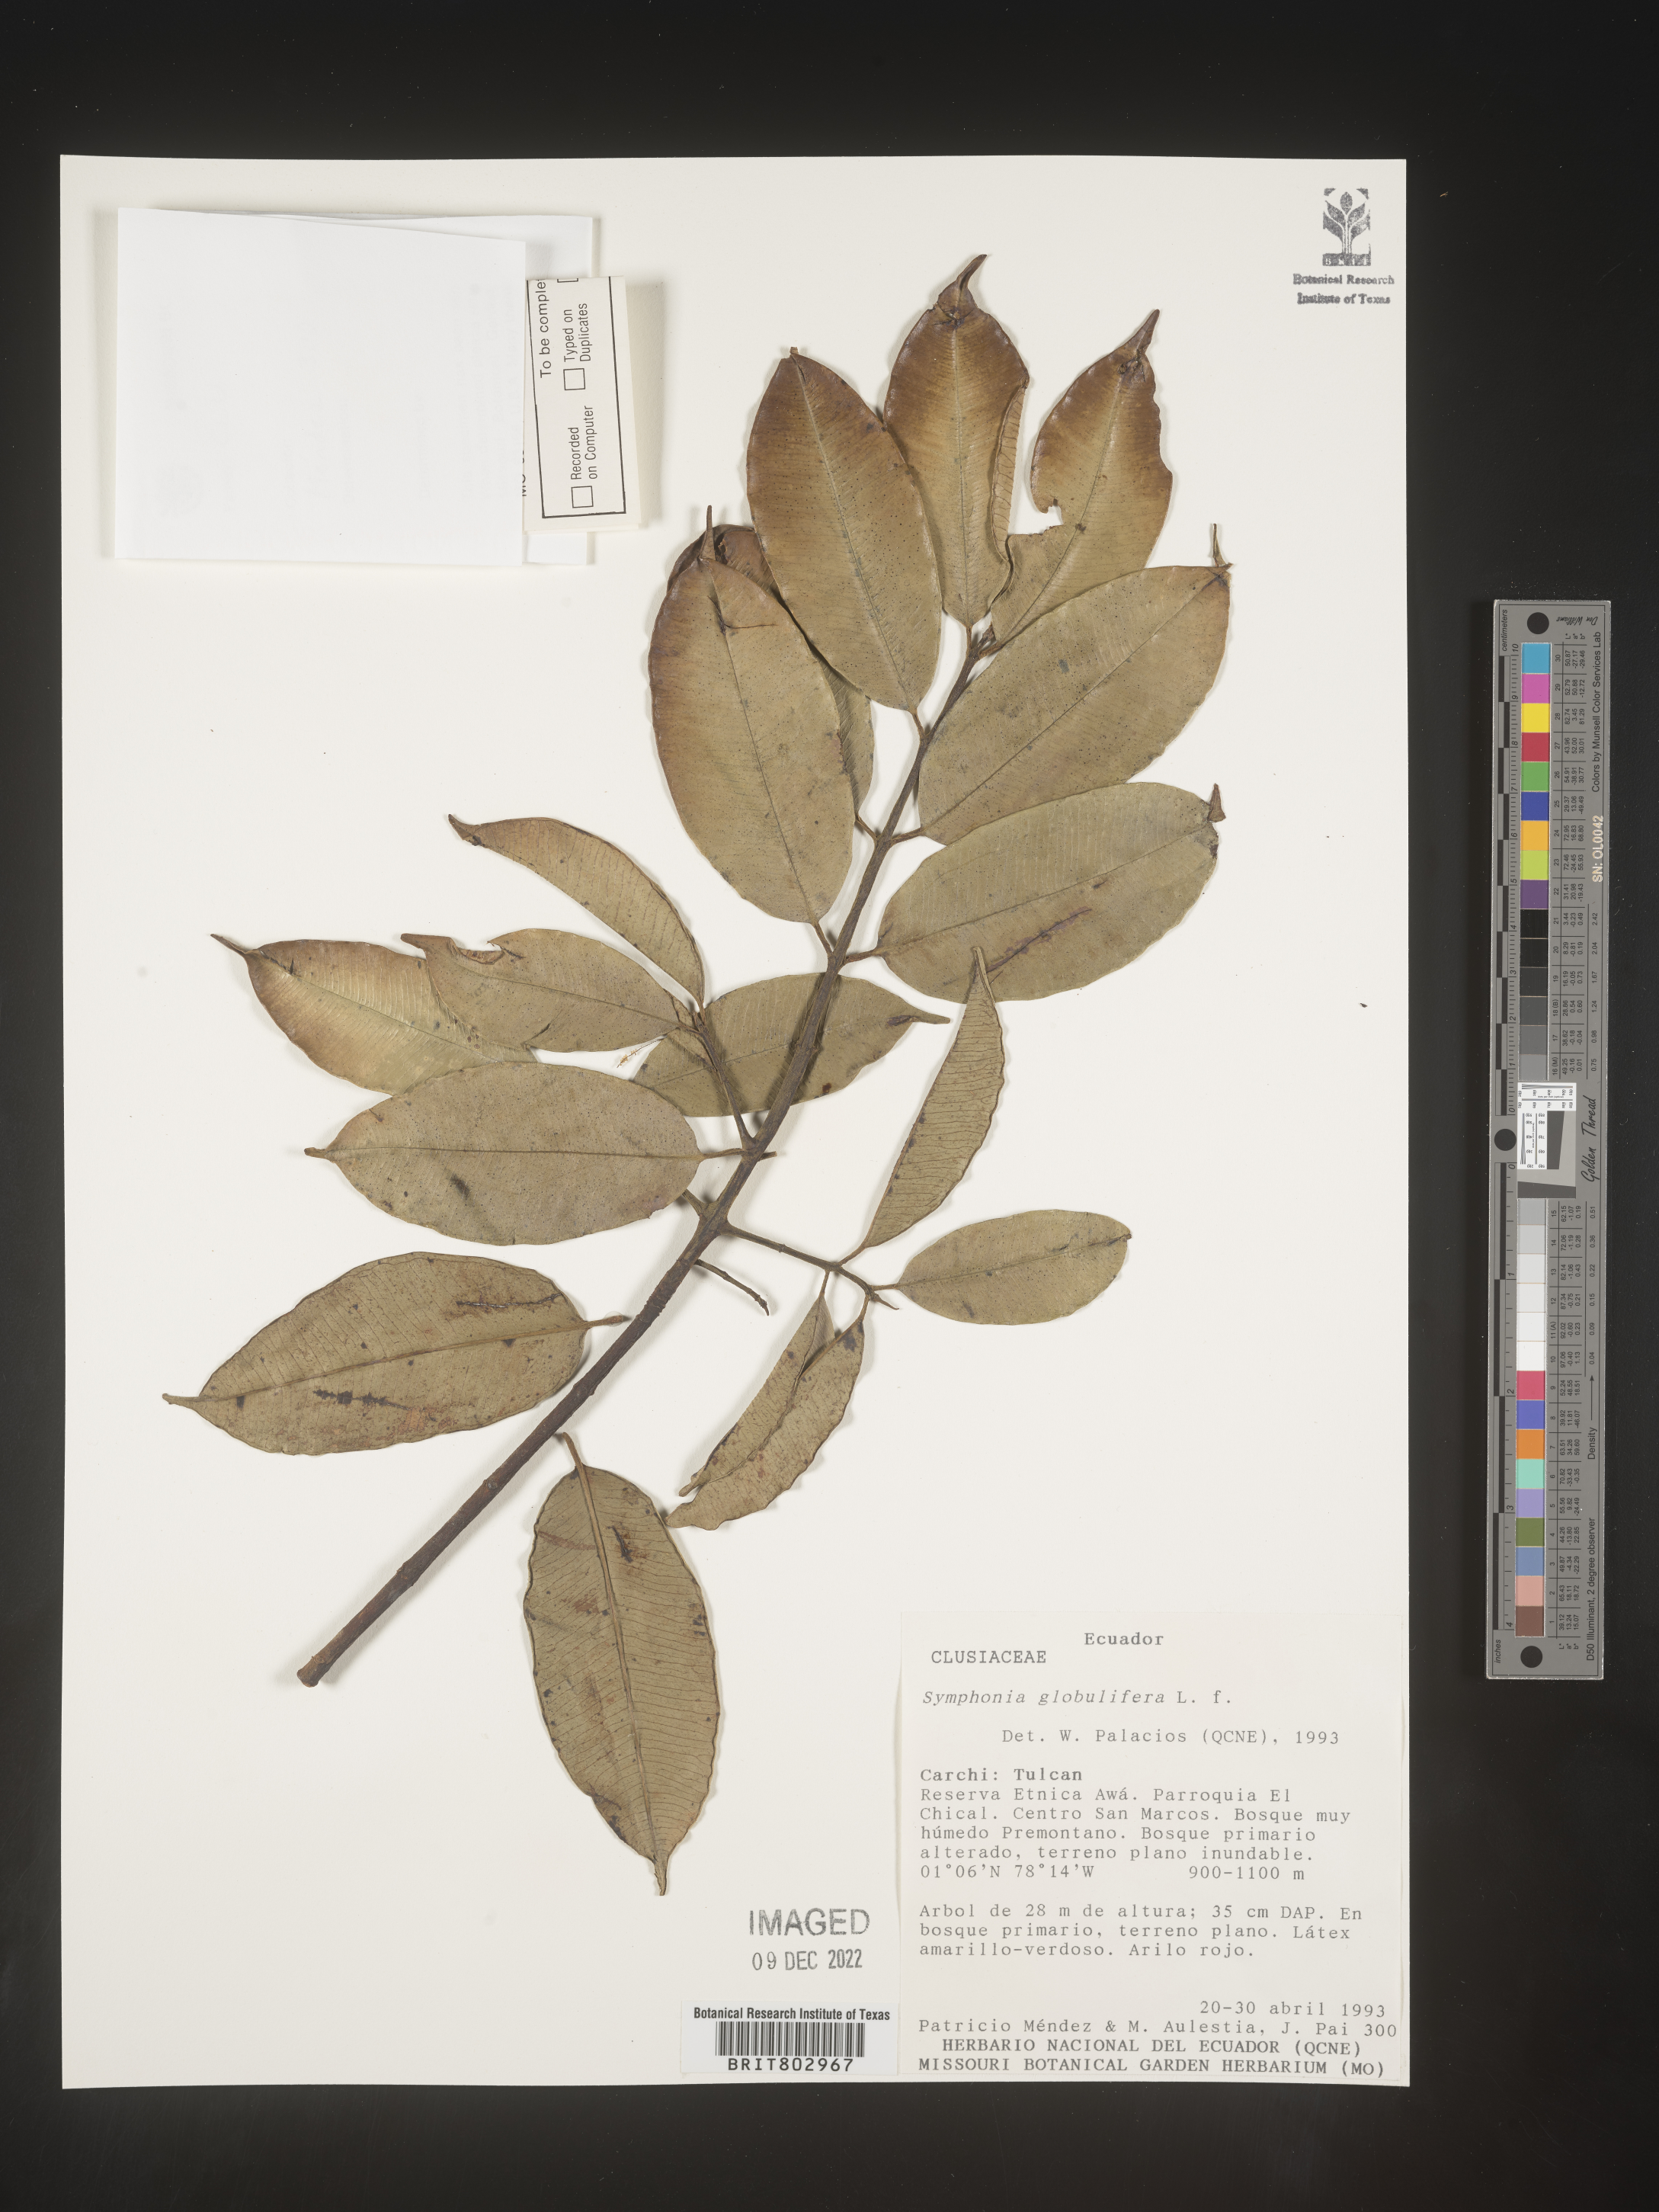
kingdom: Plantae
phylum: Tracheophyta
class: Magnoliopsida
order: Malpighiales
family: Clusiaceae
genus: Symphonia
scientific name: Symphonia
